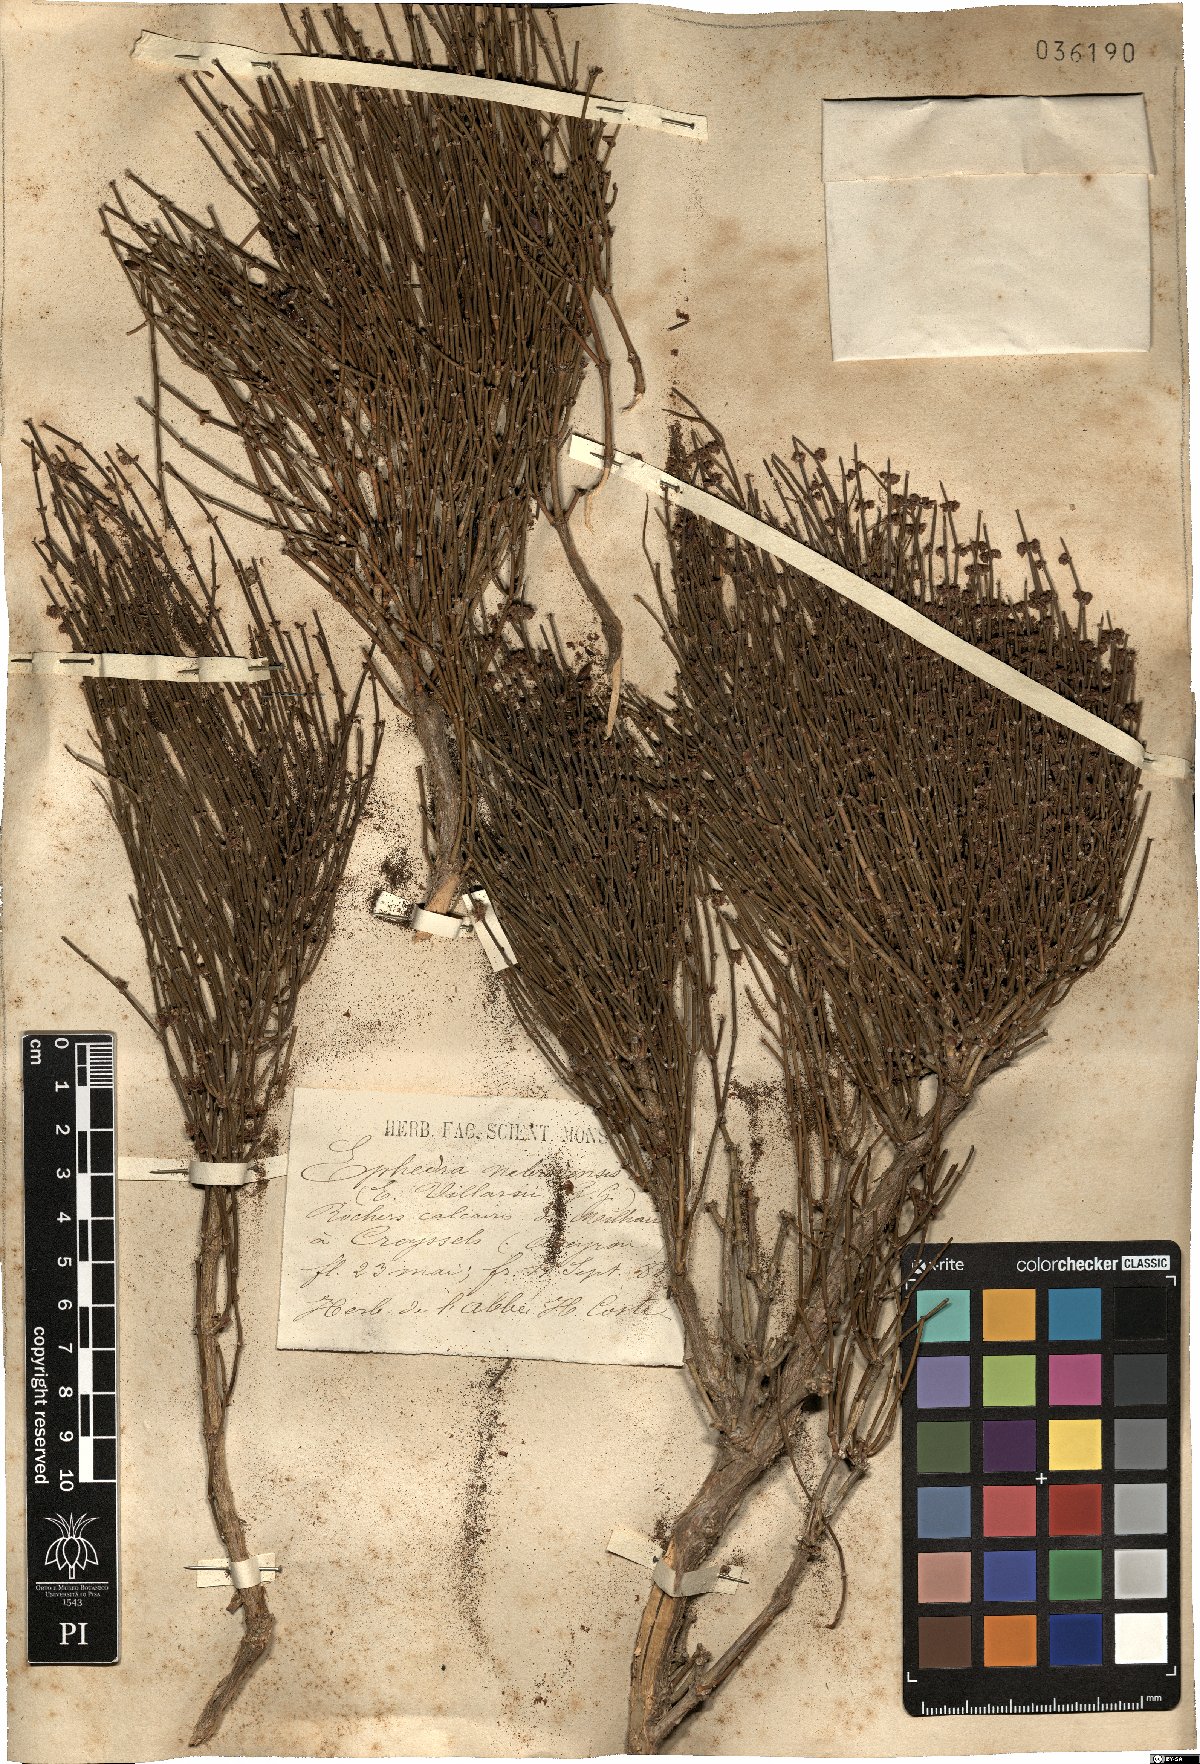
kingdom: Plantae
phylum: Tracheophyta
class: Gnetopsida
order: Ephedrales
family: Ephedraceae
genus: Ephedra
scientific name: Ephedra foeminea
